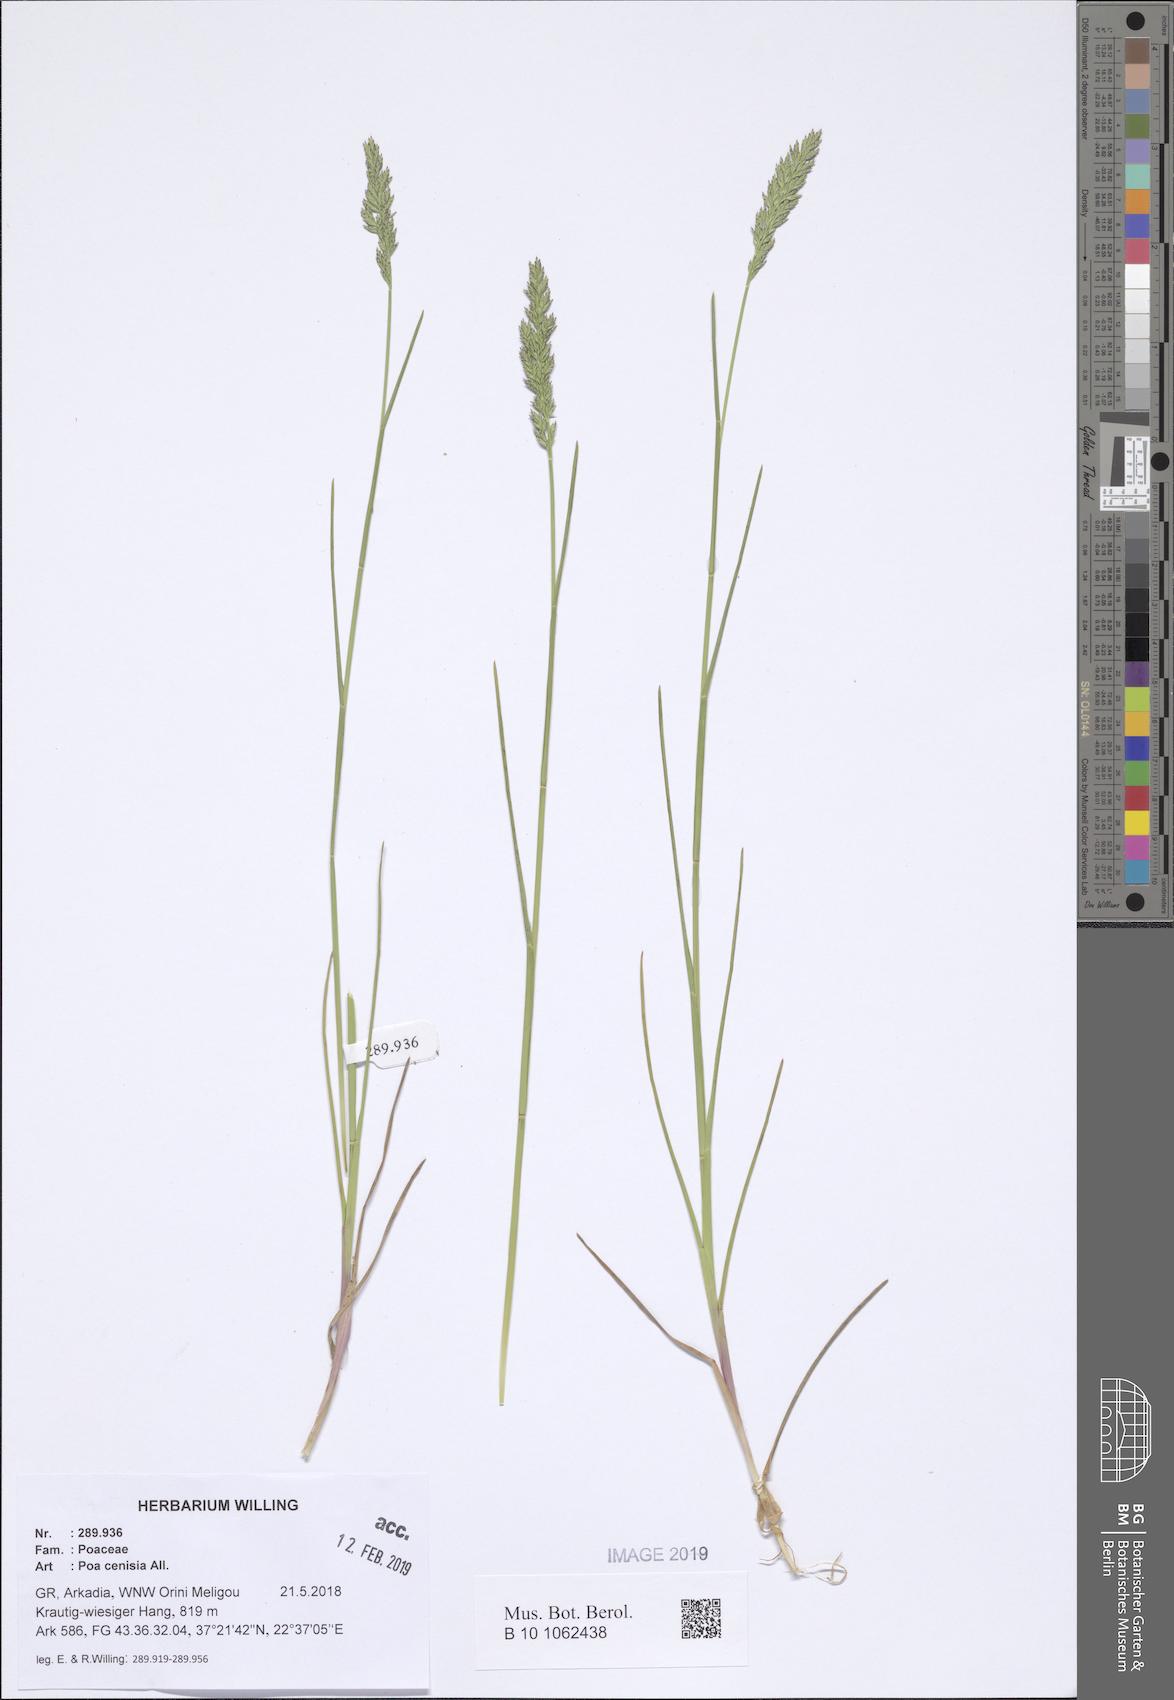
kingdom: Plantae
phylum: Tracheophyta
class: Liliopsida
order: Poales
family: Poaceae
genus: Poa
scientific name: Poa cenisia
